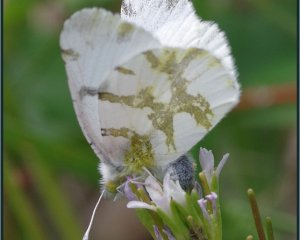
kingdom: Animalia
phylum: Arthropoda
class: Insecta
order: Lepidoptera
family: Pieridae
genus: Euchloe
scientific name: Euchloe olympia
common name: Olympia Marble
